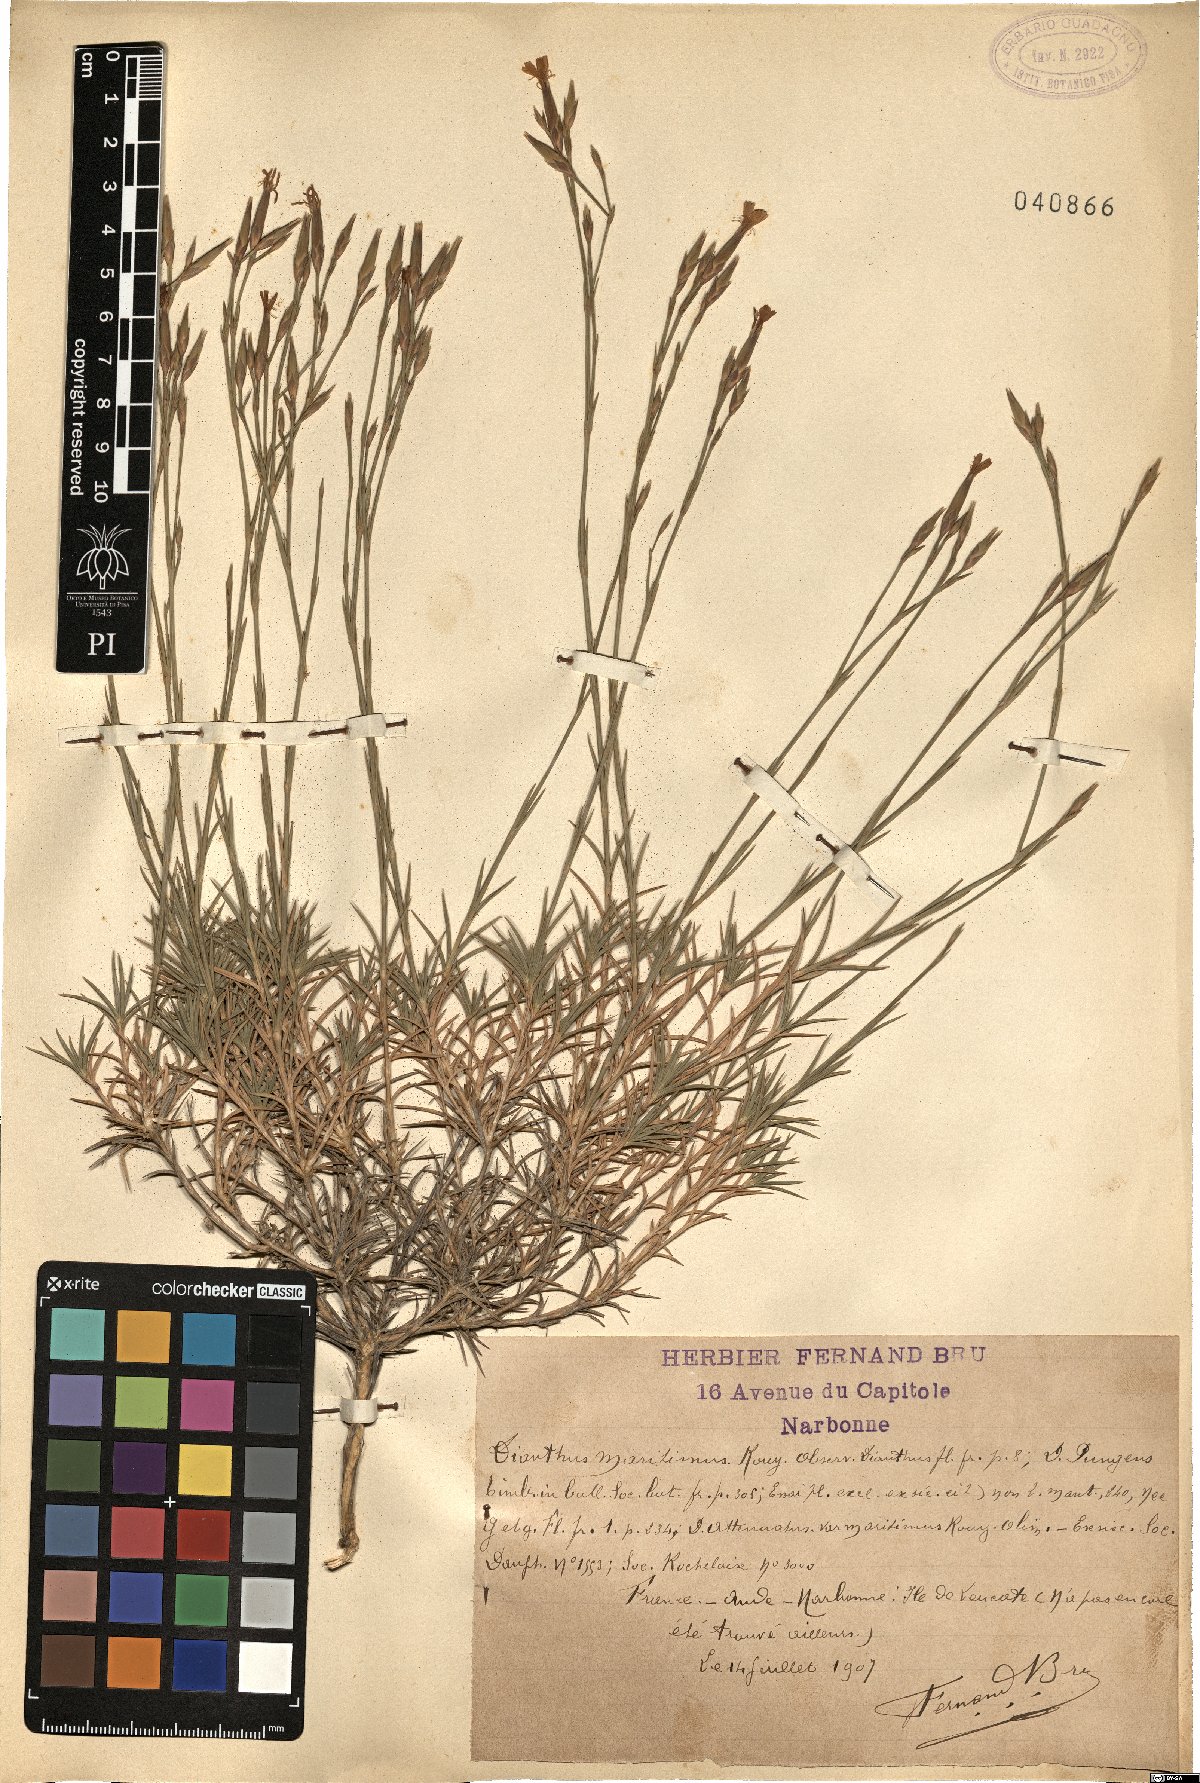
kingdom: Plantae
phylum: Tracheophyta
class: Magnoliopsida
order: Caryophyllales
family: Caryophyllaceae
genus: Dianthus
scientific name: Dianthus pyrenaicus
